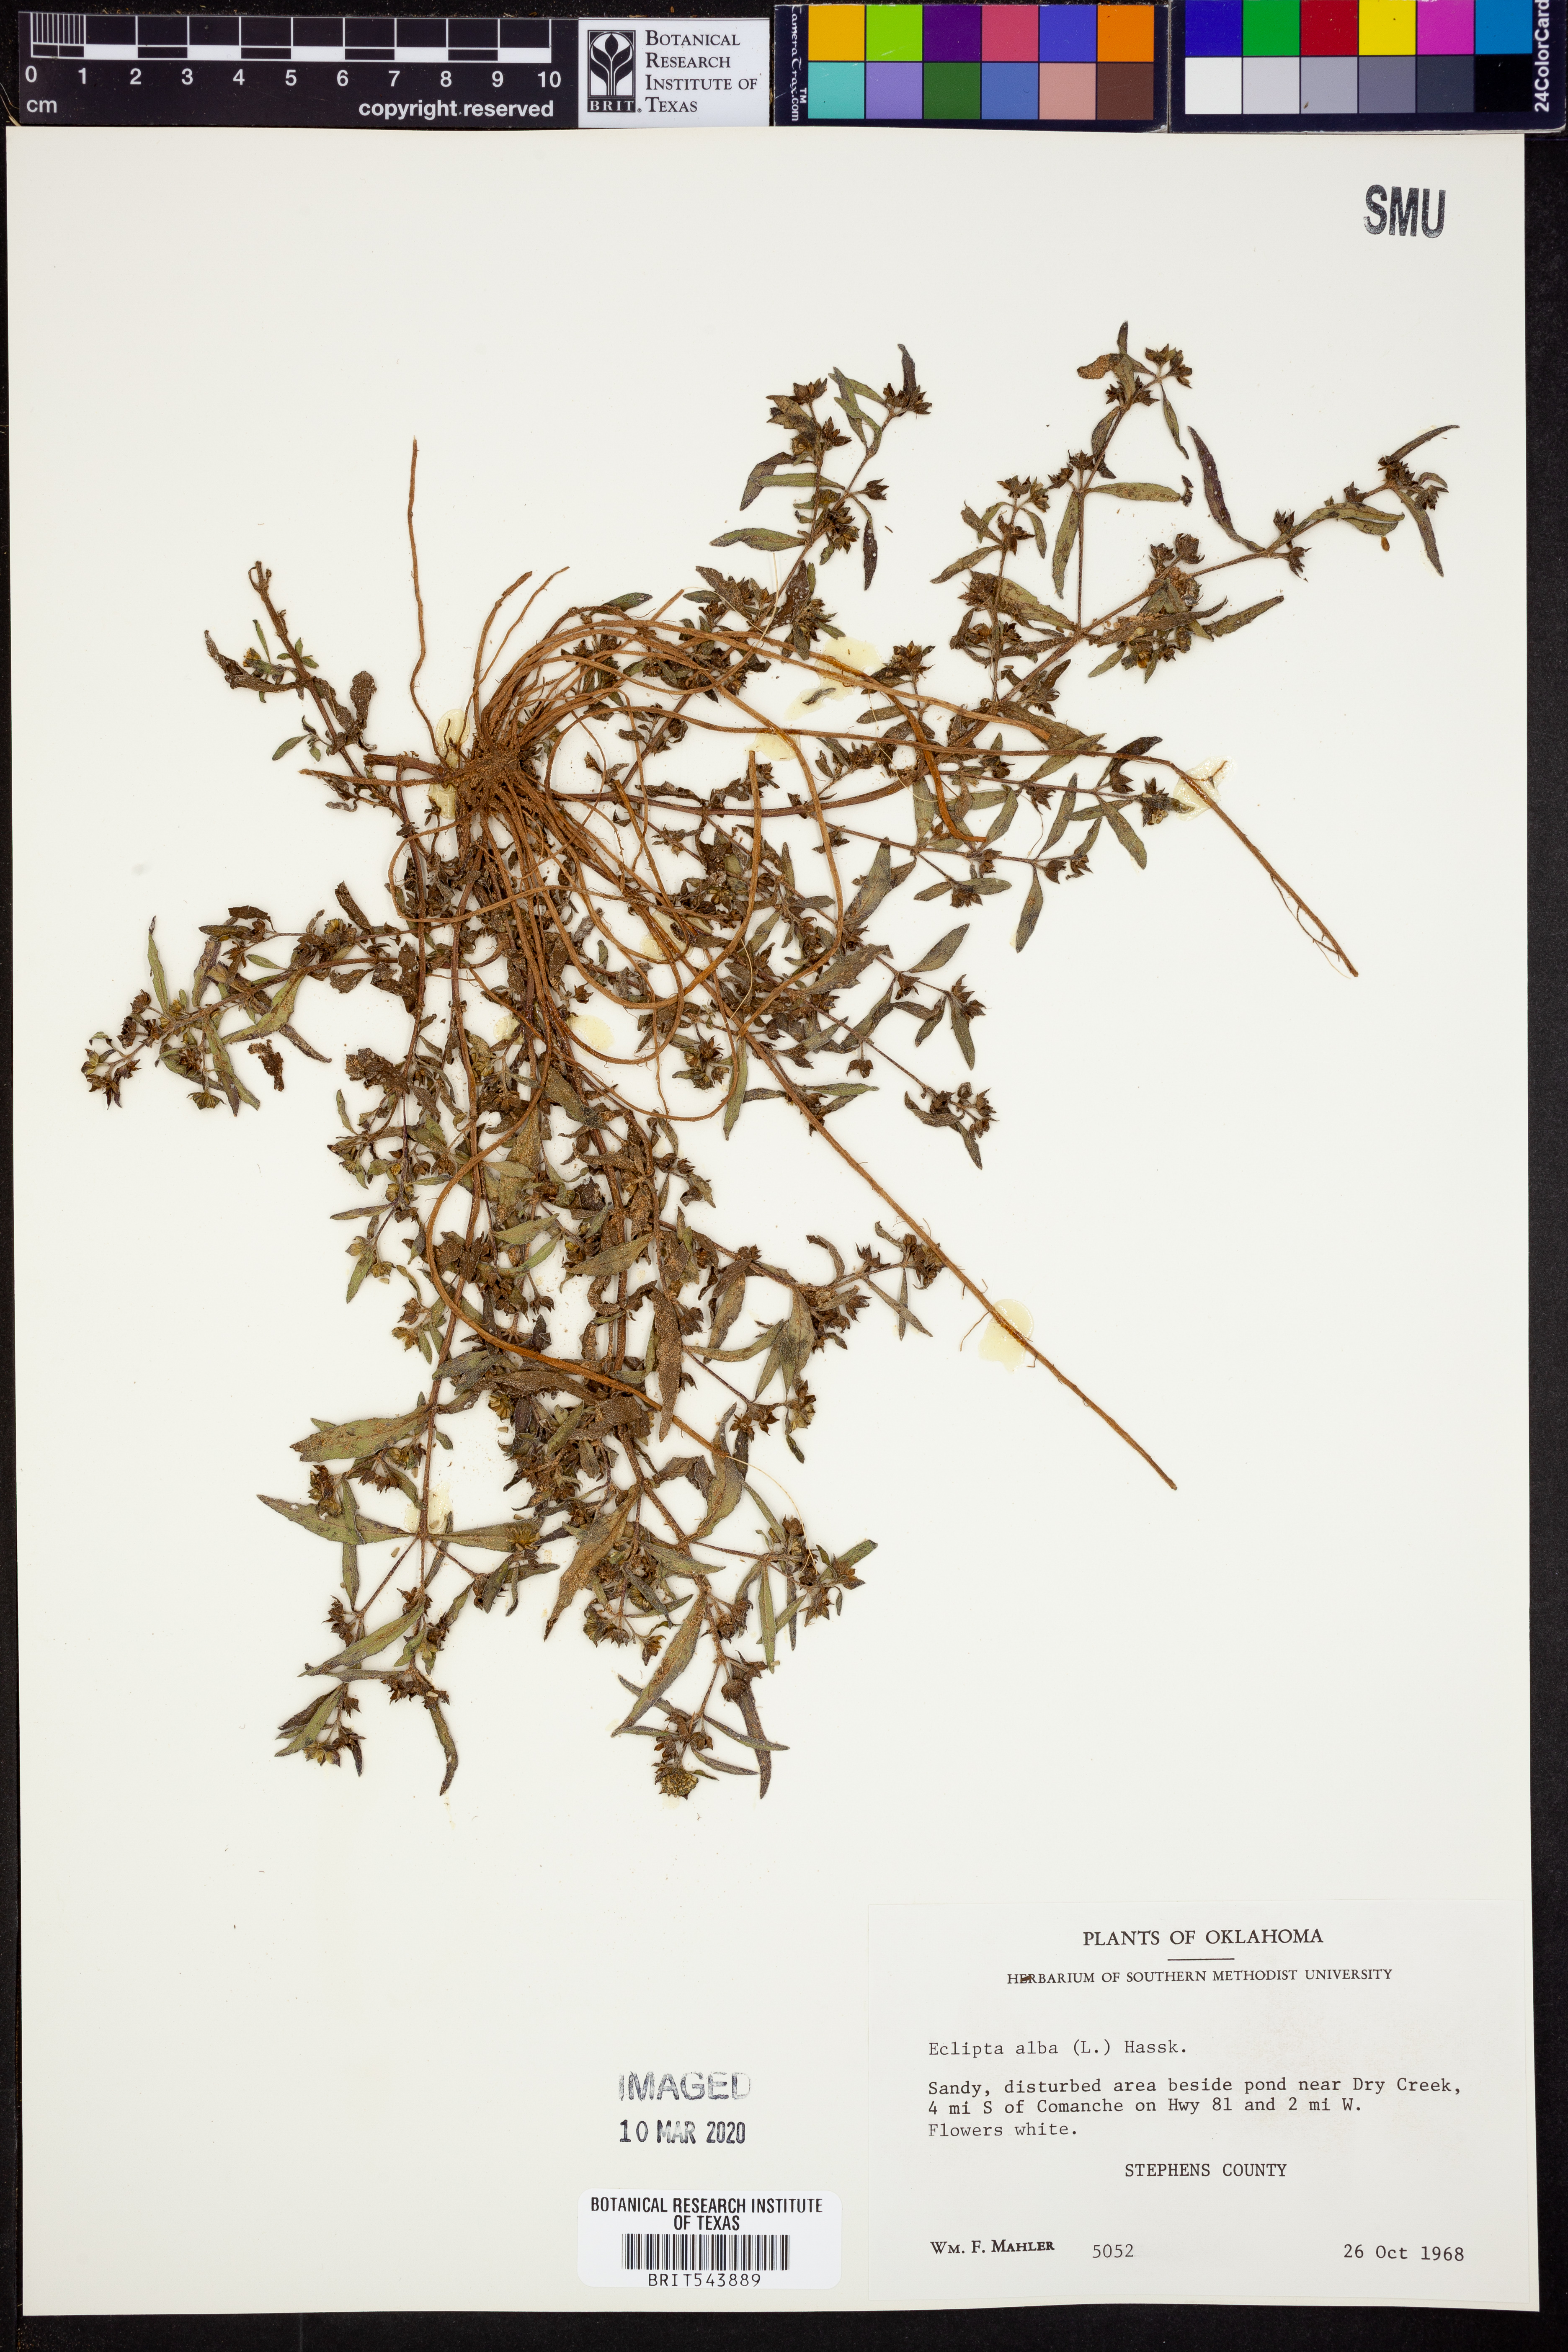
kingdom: Plantae
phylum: Tracheophyta
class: Magnoliopsida
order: Asterales
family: Asteraceae
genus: Eclipta
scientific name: Eclipta alba
